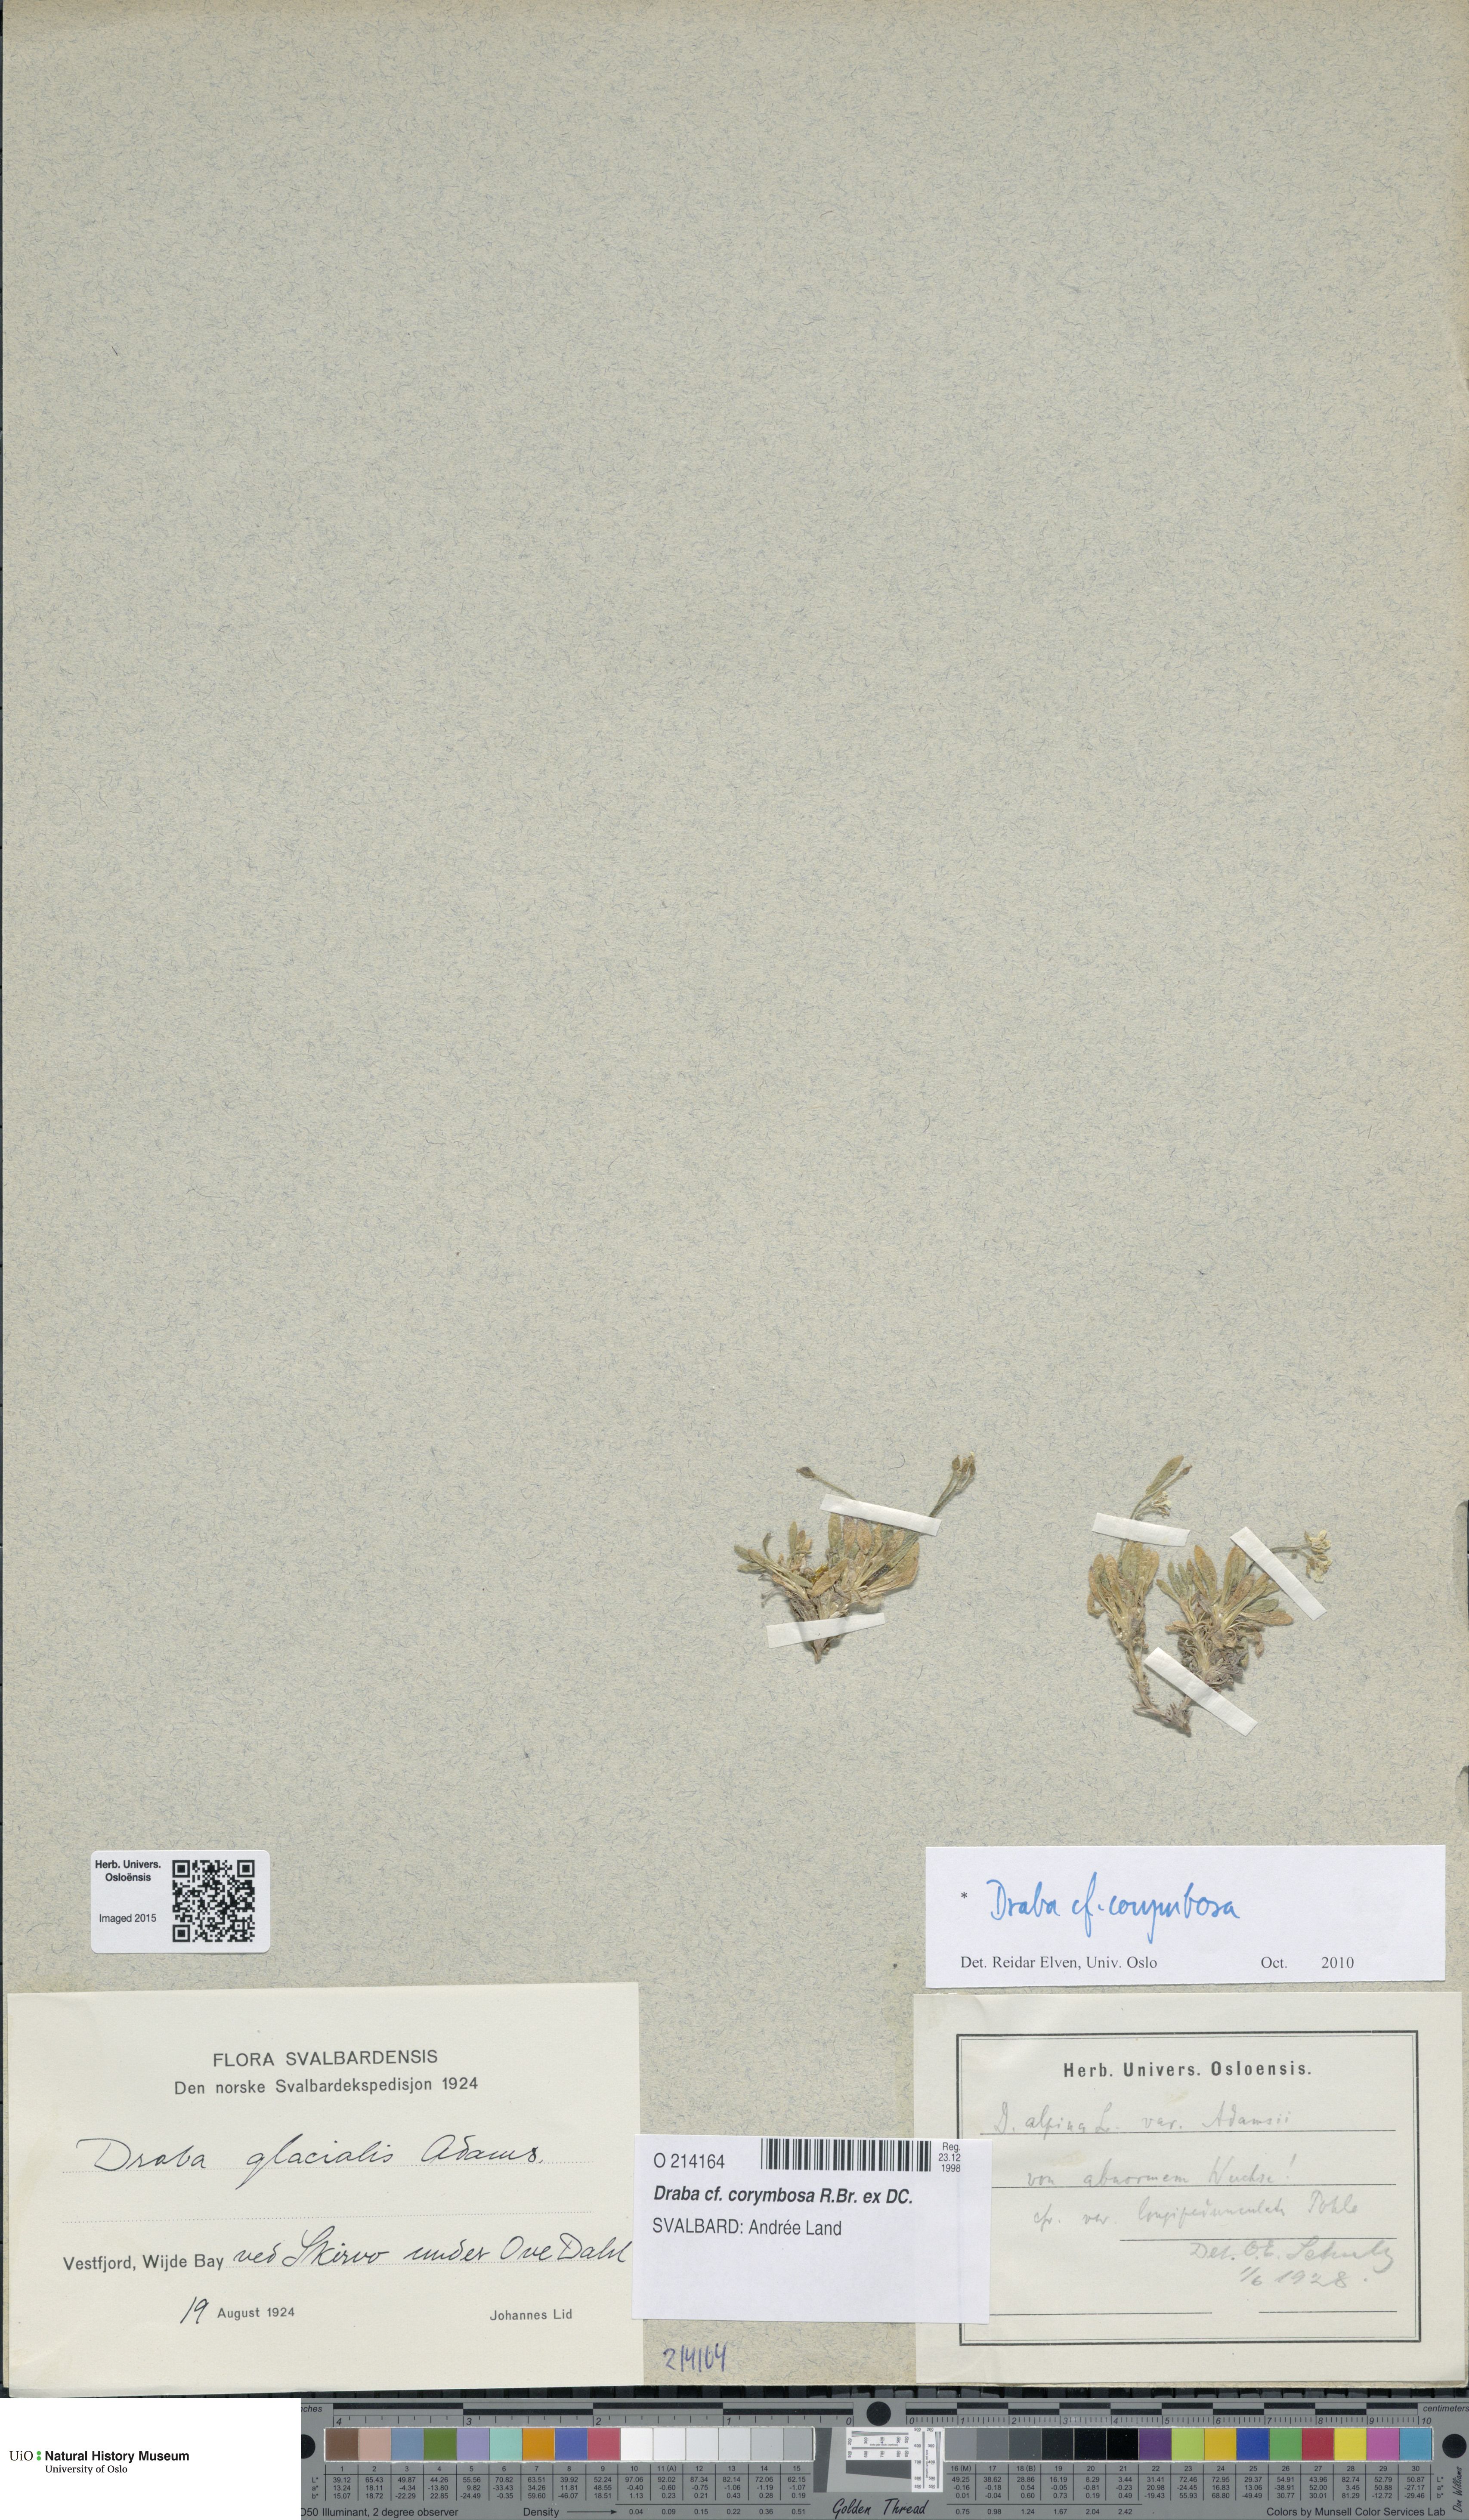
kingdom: Plantae
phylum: Tracheophyta
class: Magnoliopsida
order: Brassicales
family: Brassicaceae
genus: Draba
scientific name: Draba corymbosa
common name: Cushion whitlow-grass
